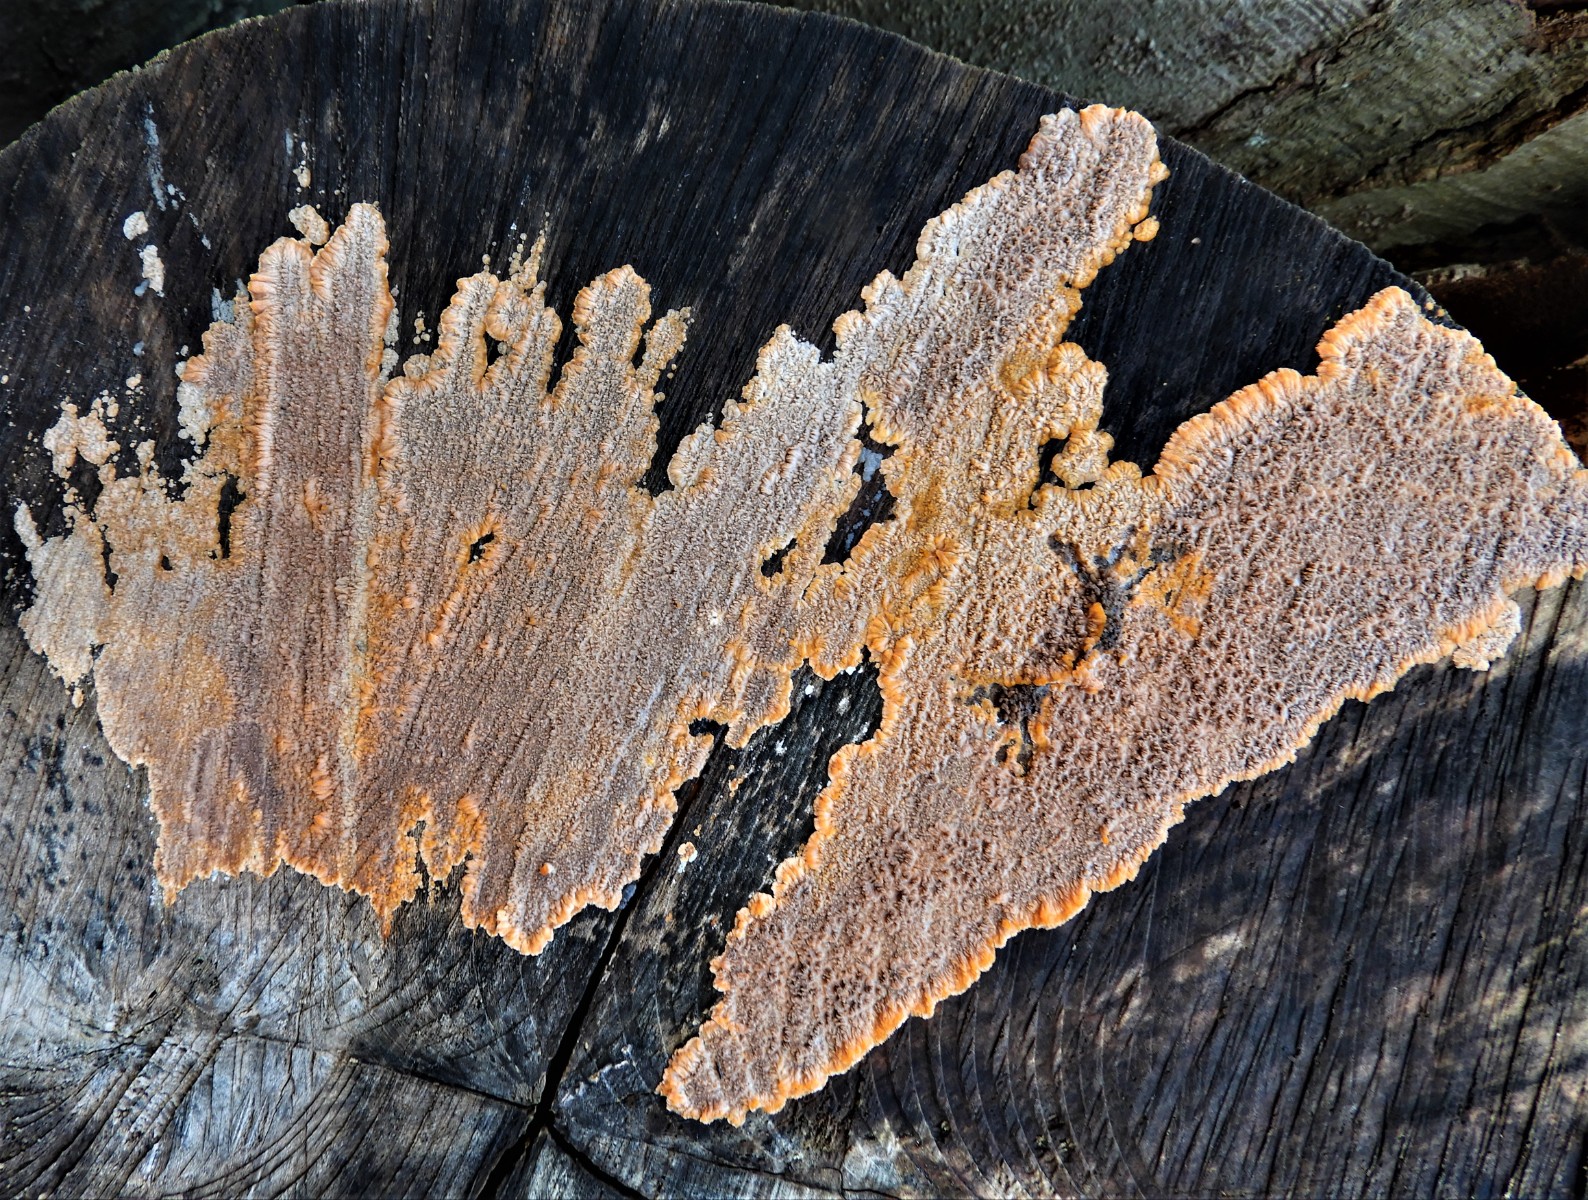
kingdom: Fungi
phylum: Basidiomycota
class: Agaricomycetes
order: Polyporales
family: Meruliaceae
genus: Phlebia
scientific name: Phlebia radiata
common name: stråle-åresvamp
